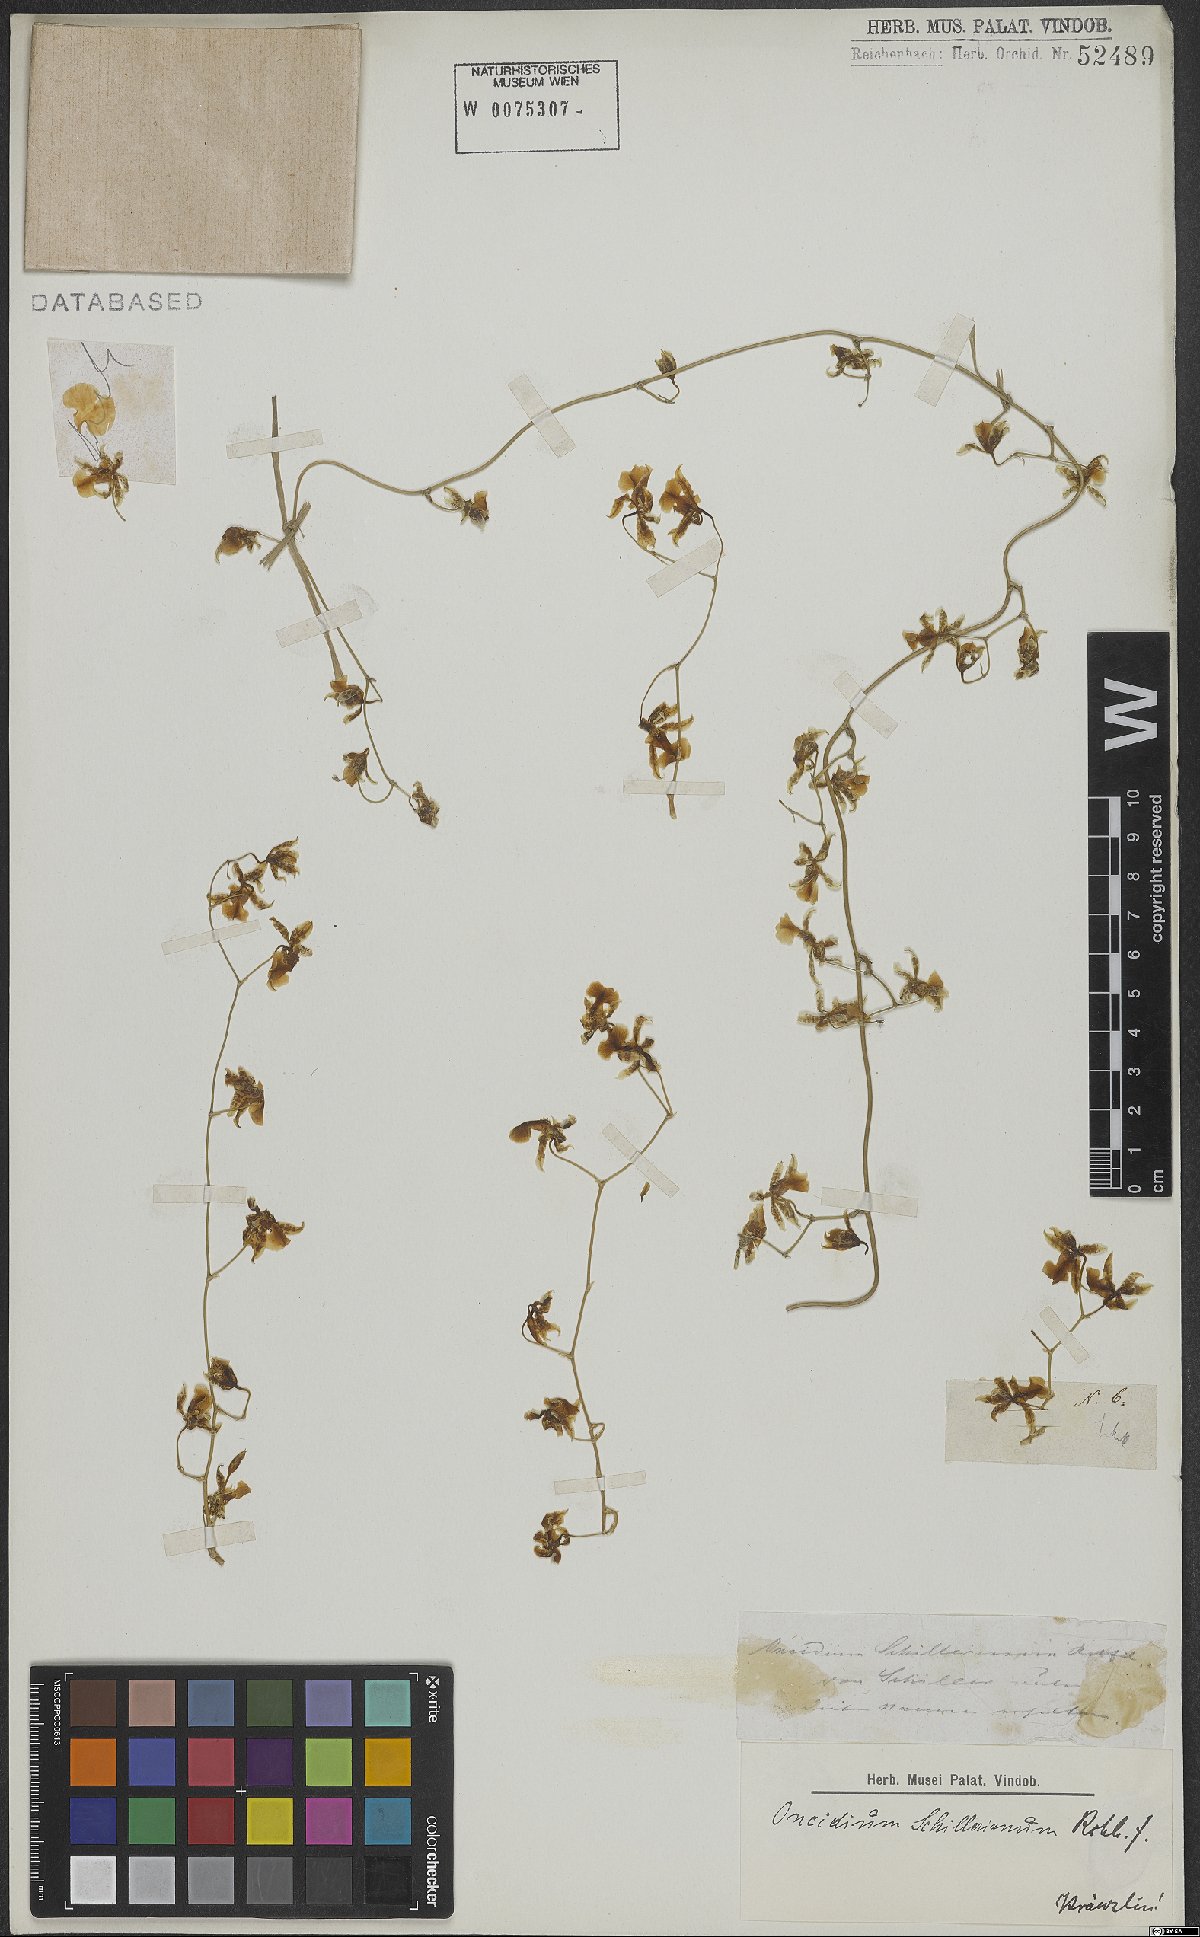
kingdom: Plantae
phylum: Tracheophyta
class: Liliopsida
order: Asparagales
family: Orchidaceae
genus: Oncidium
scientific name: Oncidium schillerianum
